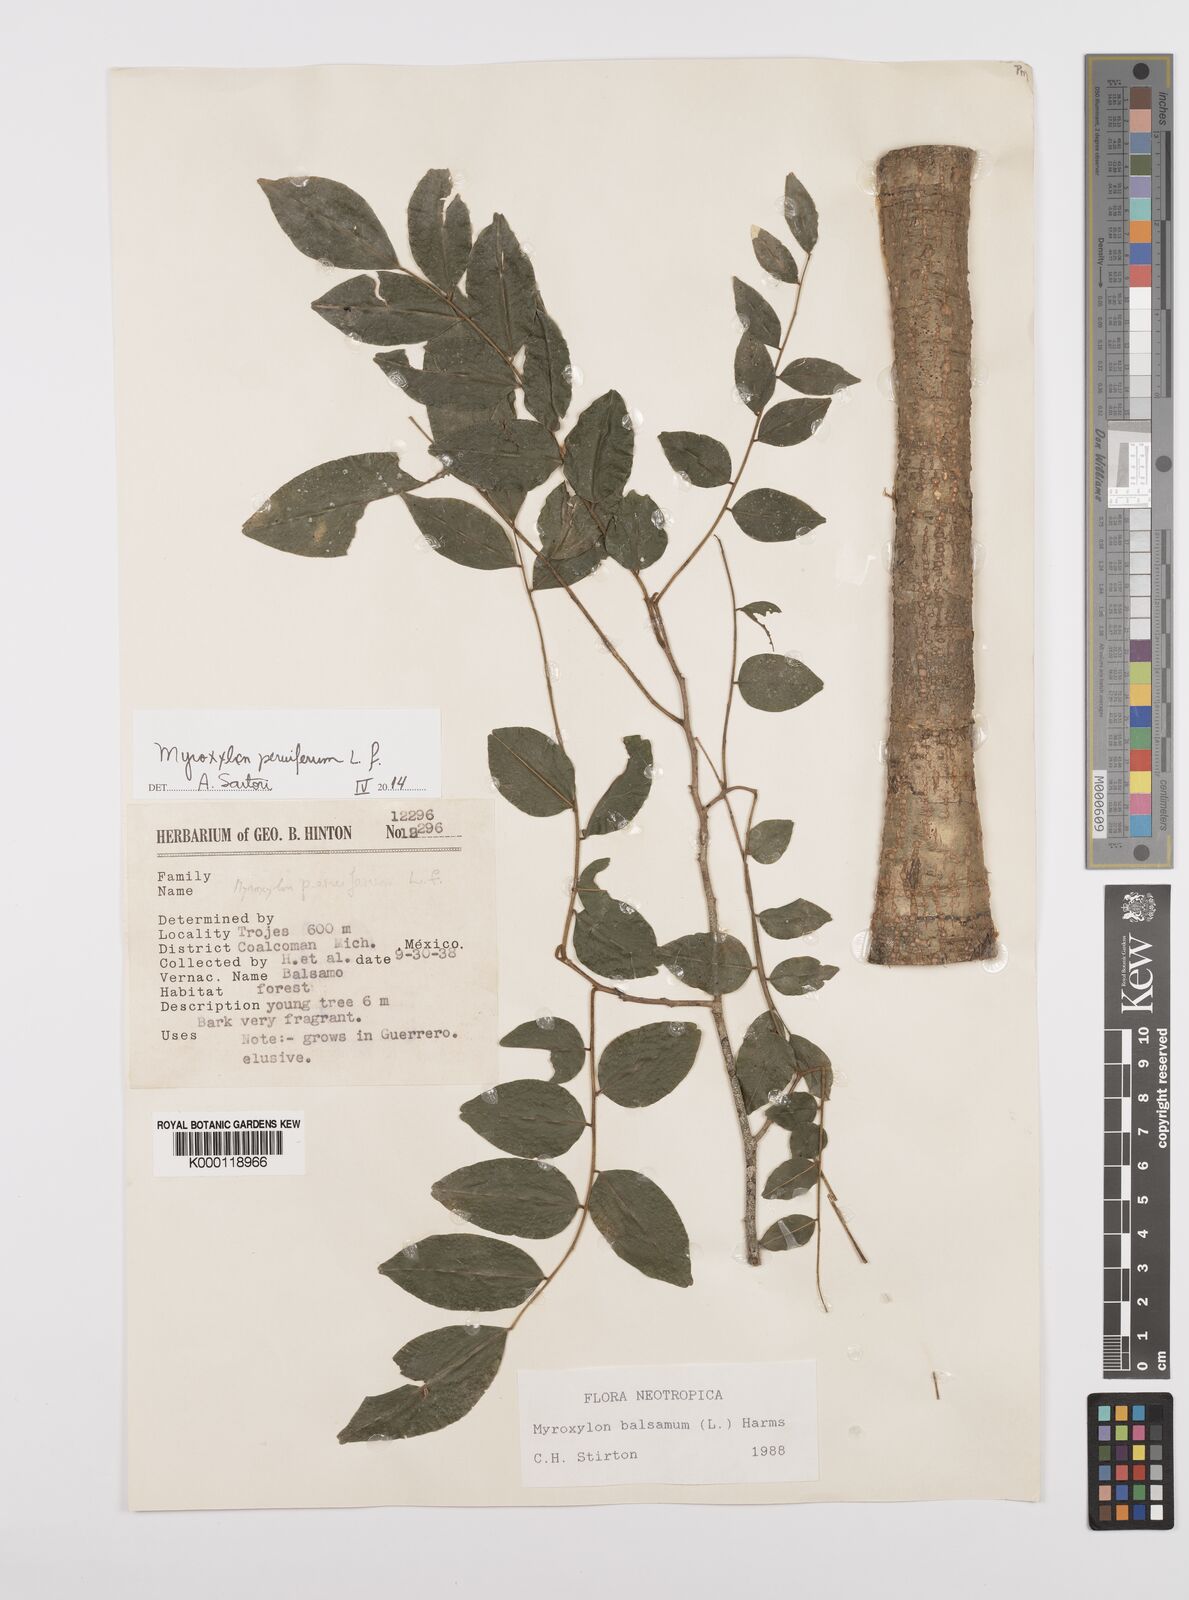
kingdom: Plantae
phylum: Tracheophyta
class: Magnoliopsida
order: Fabales
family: Fabaceae
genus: Myroxylon
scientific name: Myroxylon balsamum
